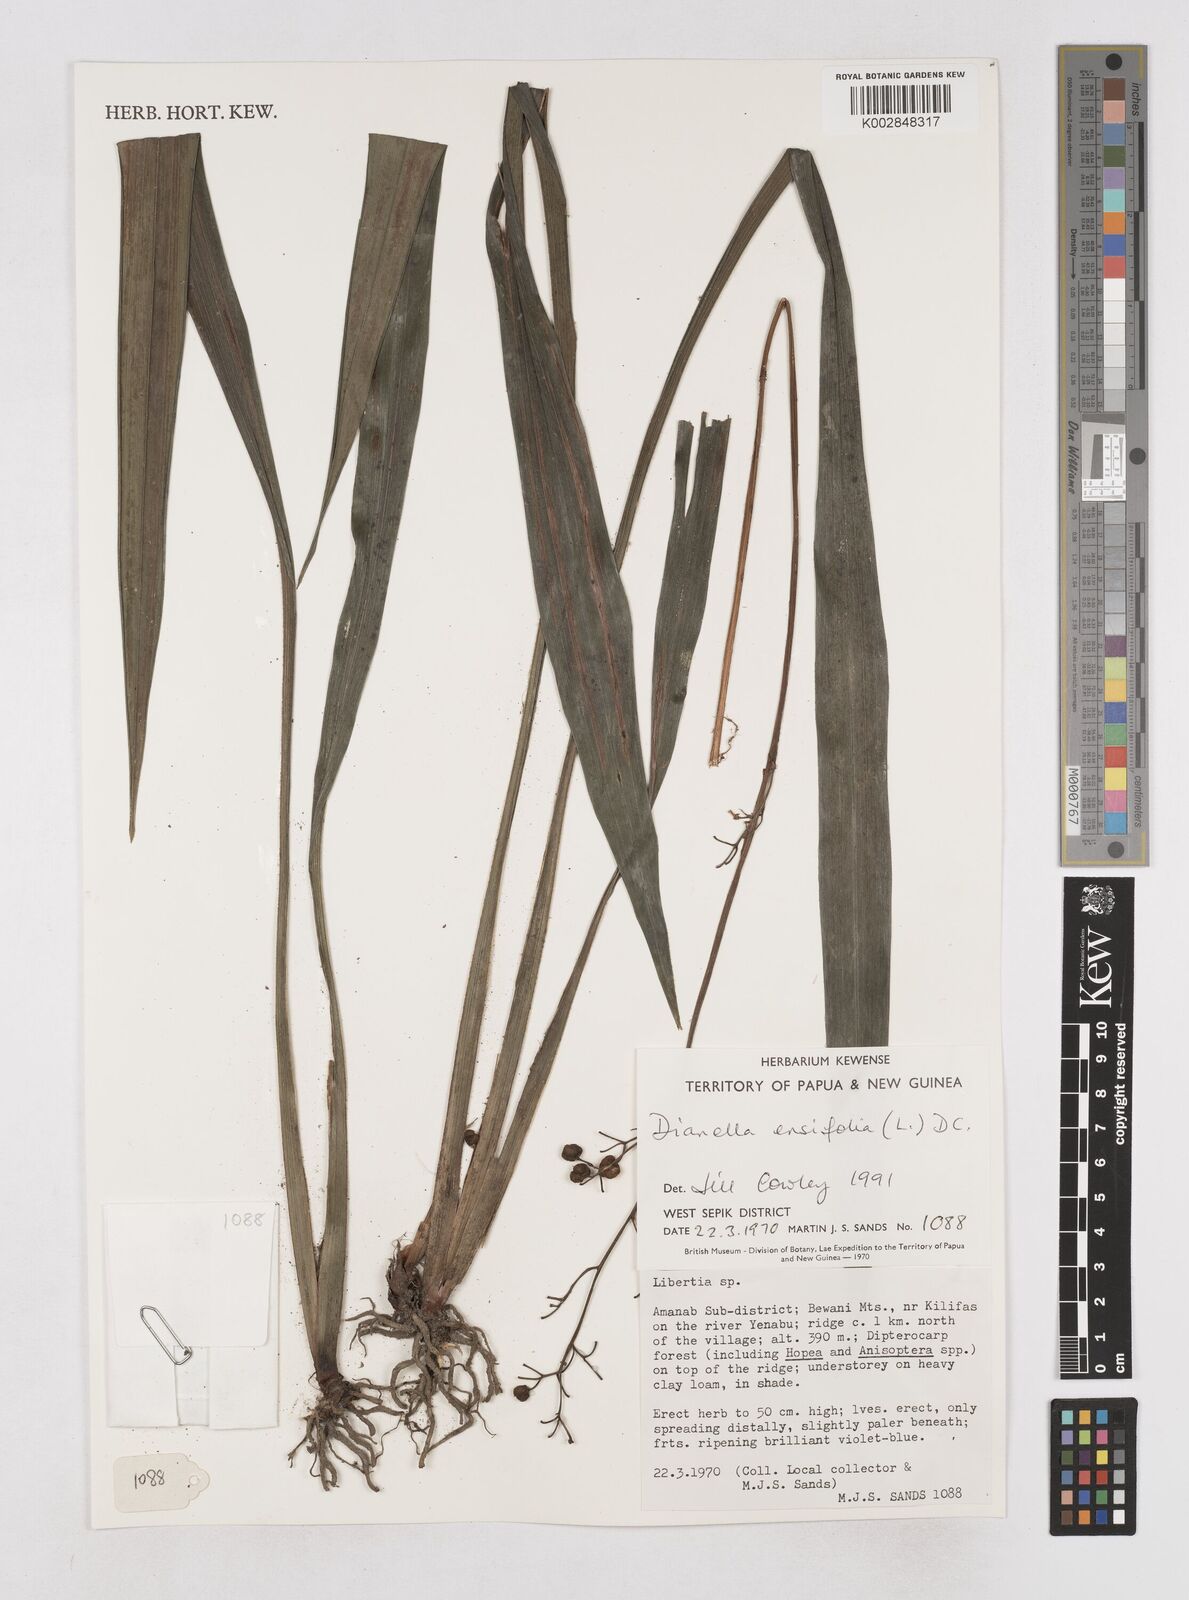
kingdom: Plantae
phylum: Tracheophyta
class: Liliopsida
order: Asparagales
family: Asphodelaceae
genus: Dianella
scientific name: Dianella ensifolia
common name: New zealand lilyplant
